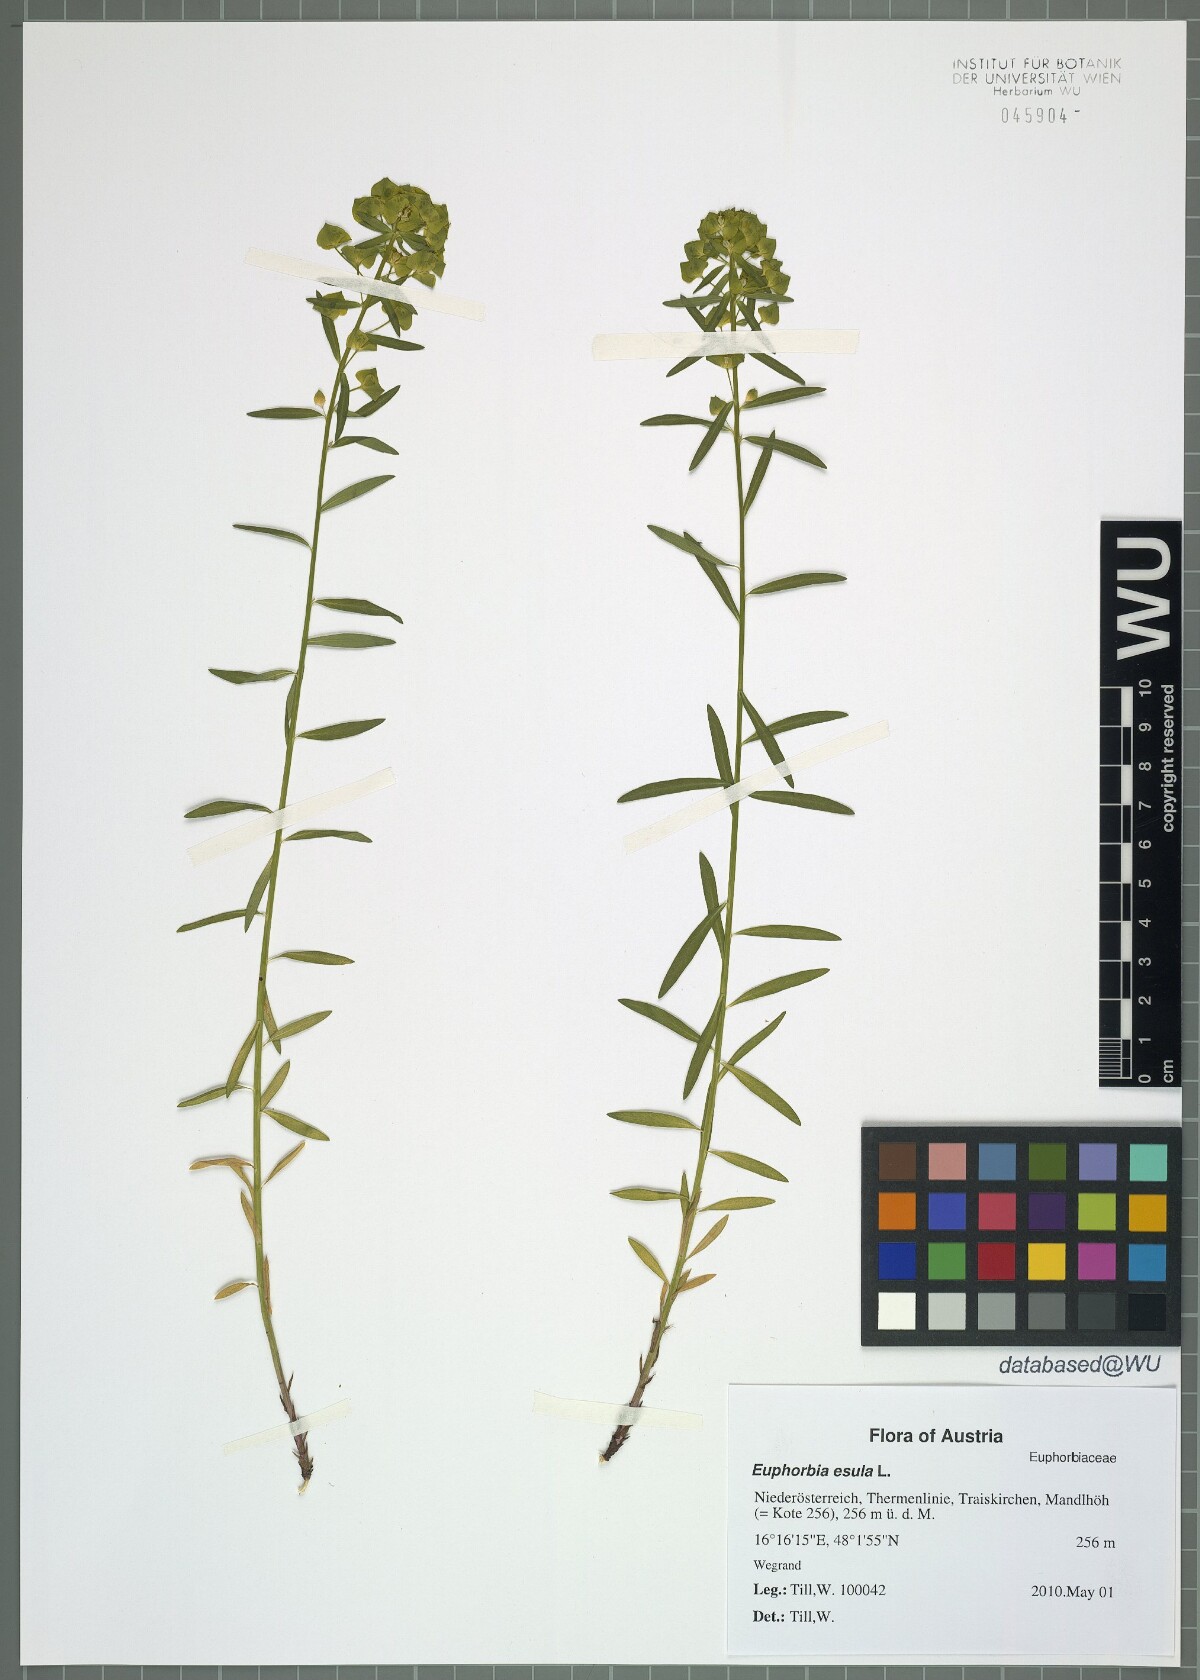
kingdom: Plantae
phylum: Tracheophyta
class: Magnoliopsida
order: Malpighiales
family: Euphorbiaceae
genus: Euphorbia
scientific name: Euphorbia esula
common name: Leafy spurge
